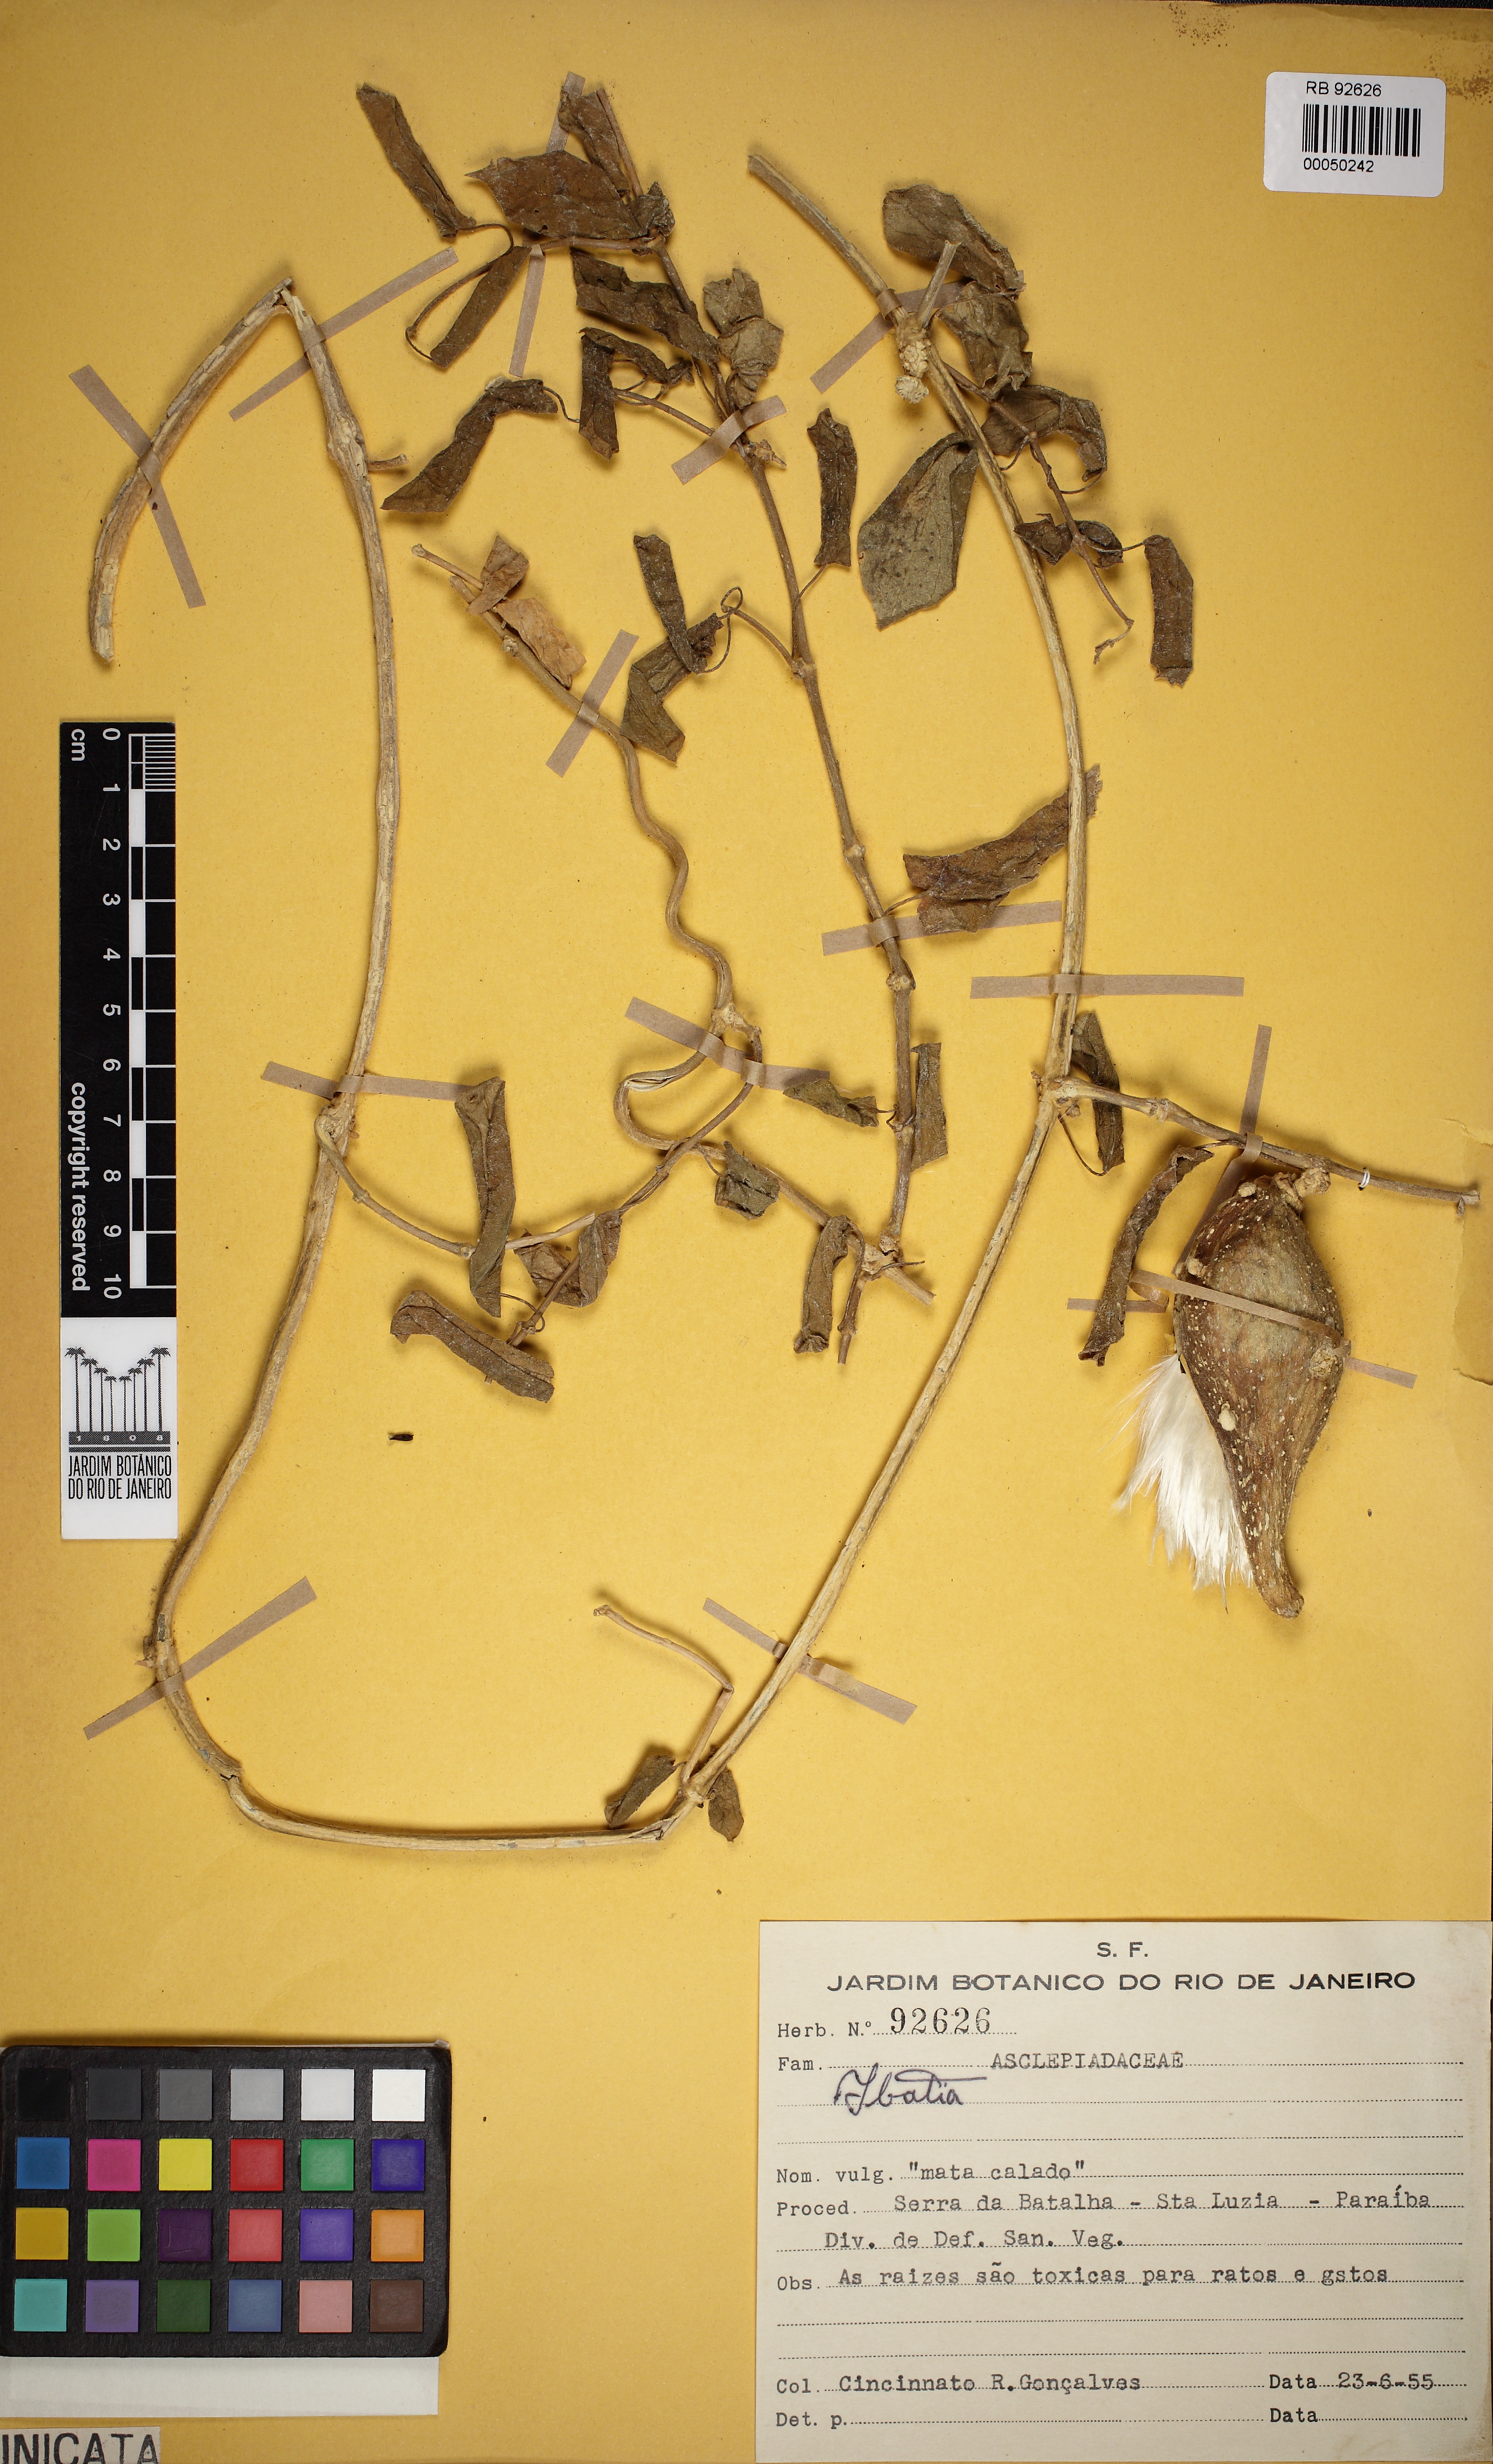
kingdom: Plantae
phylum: Tracheophyta
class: Magnoliopsida
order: Gentianales
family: Apocynaceae
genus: Ibatia
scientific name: Ibatia
